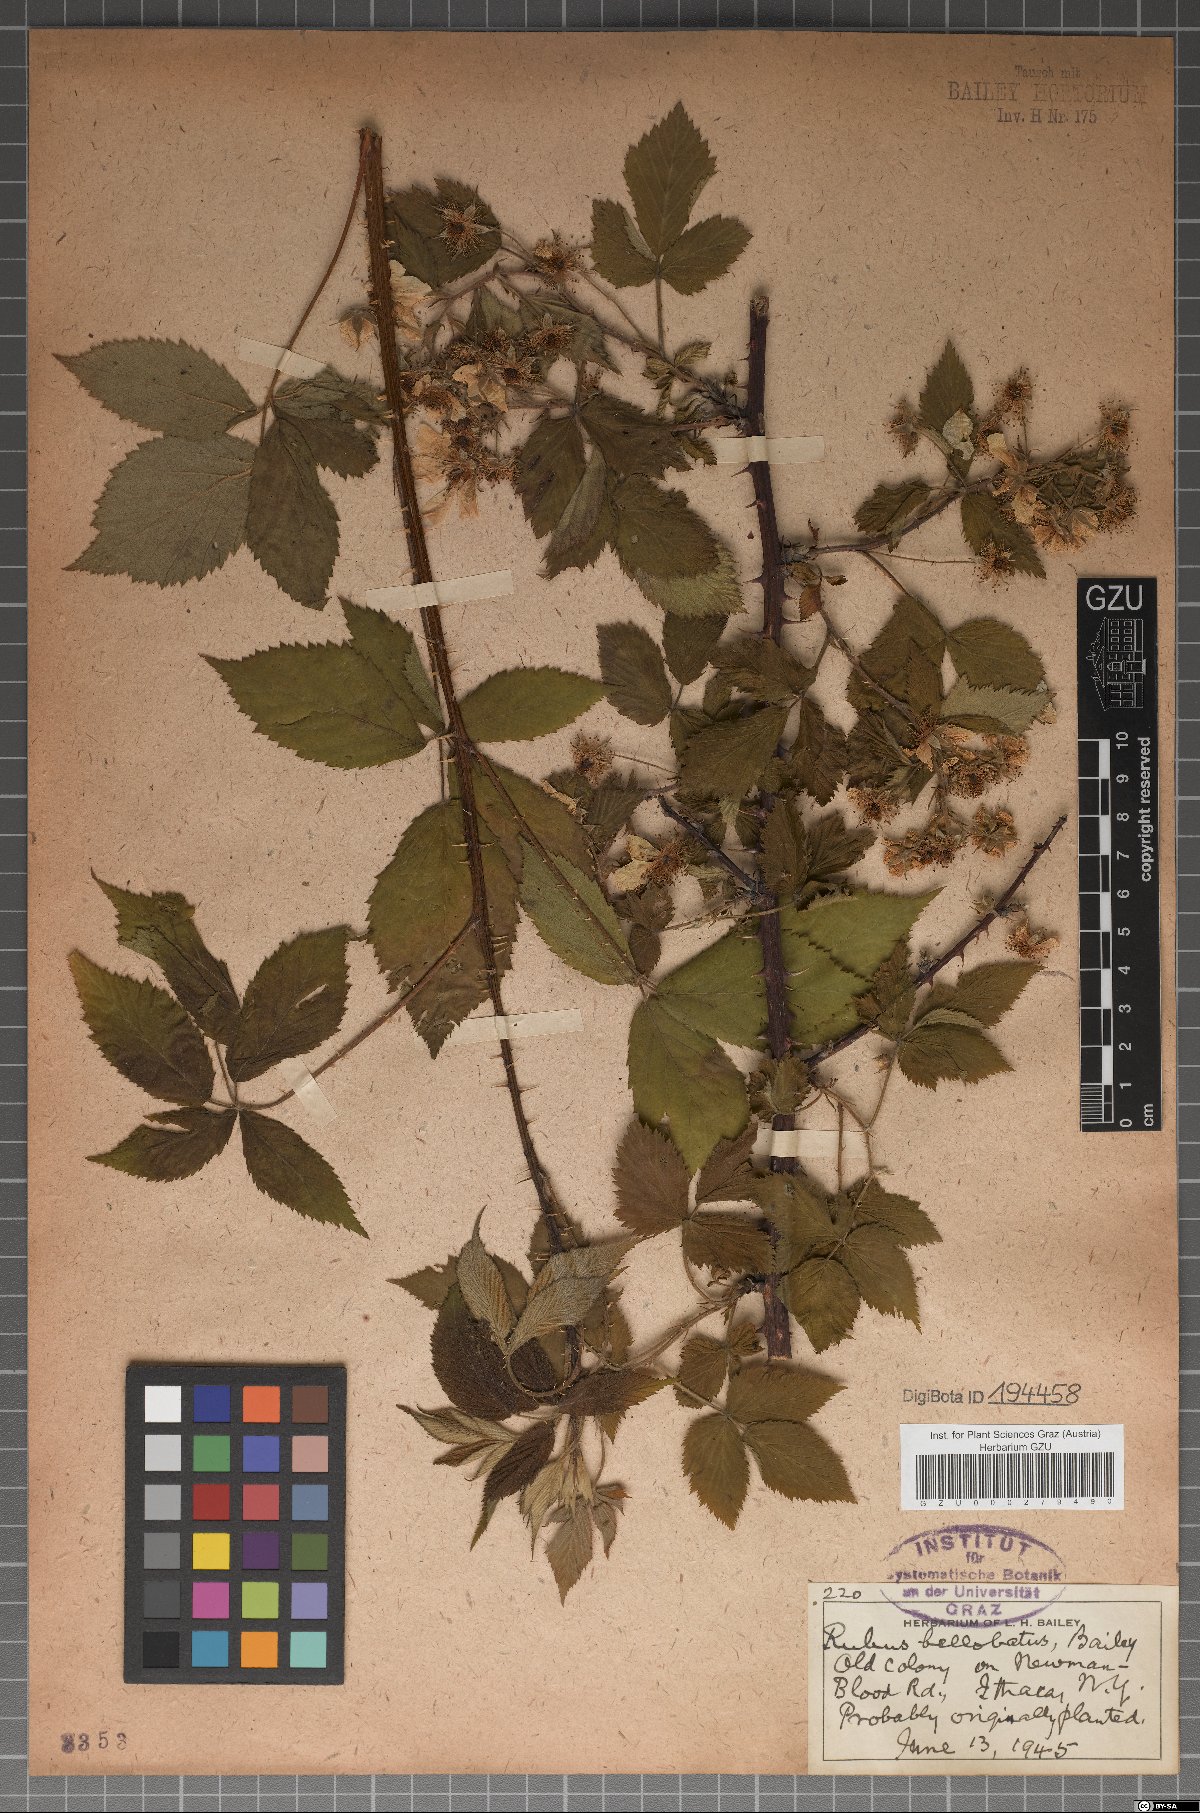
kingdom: Plantae
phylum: Tracheophyta
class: Magnoliopsida
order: Rosales
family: Rosaceae
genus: Rubus
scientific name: Rubus bellobatus
